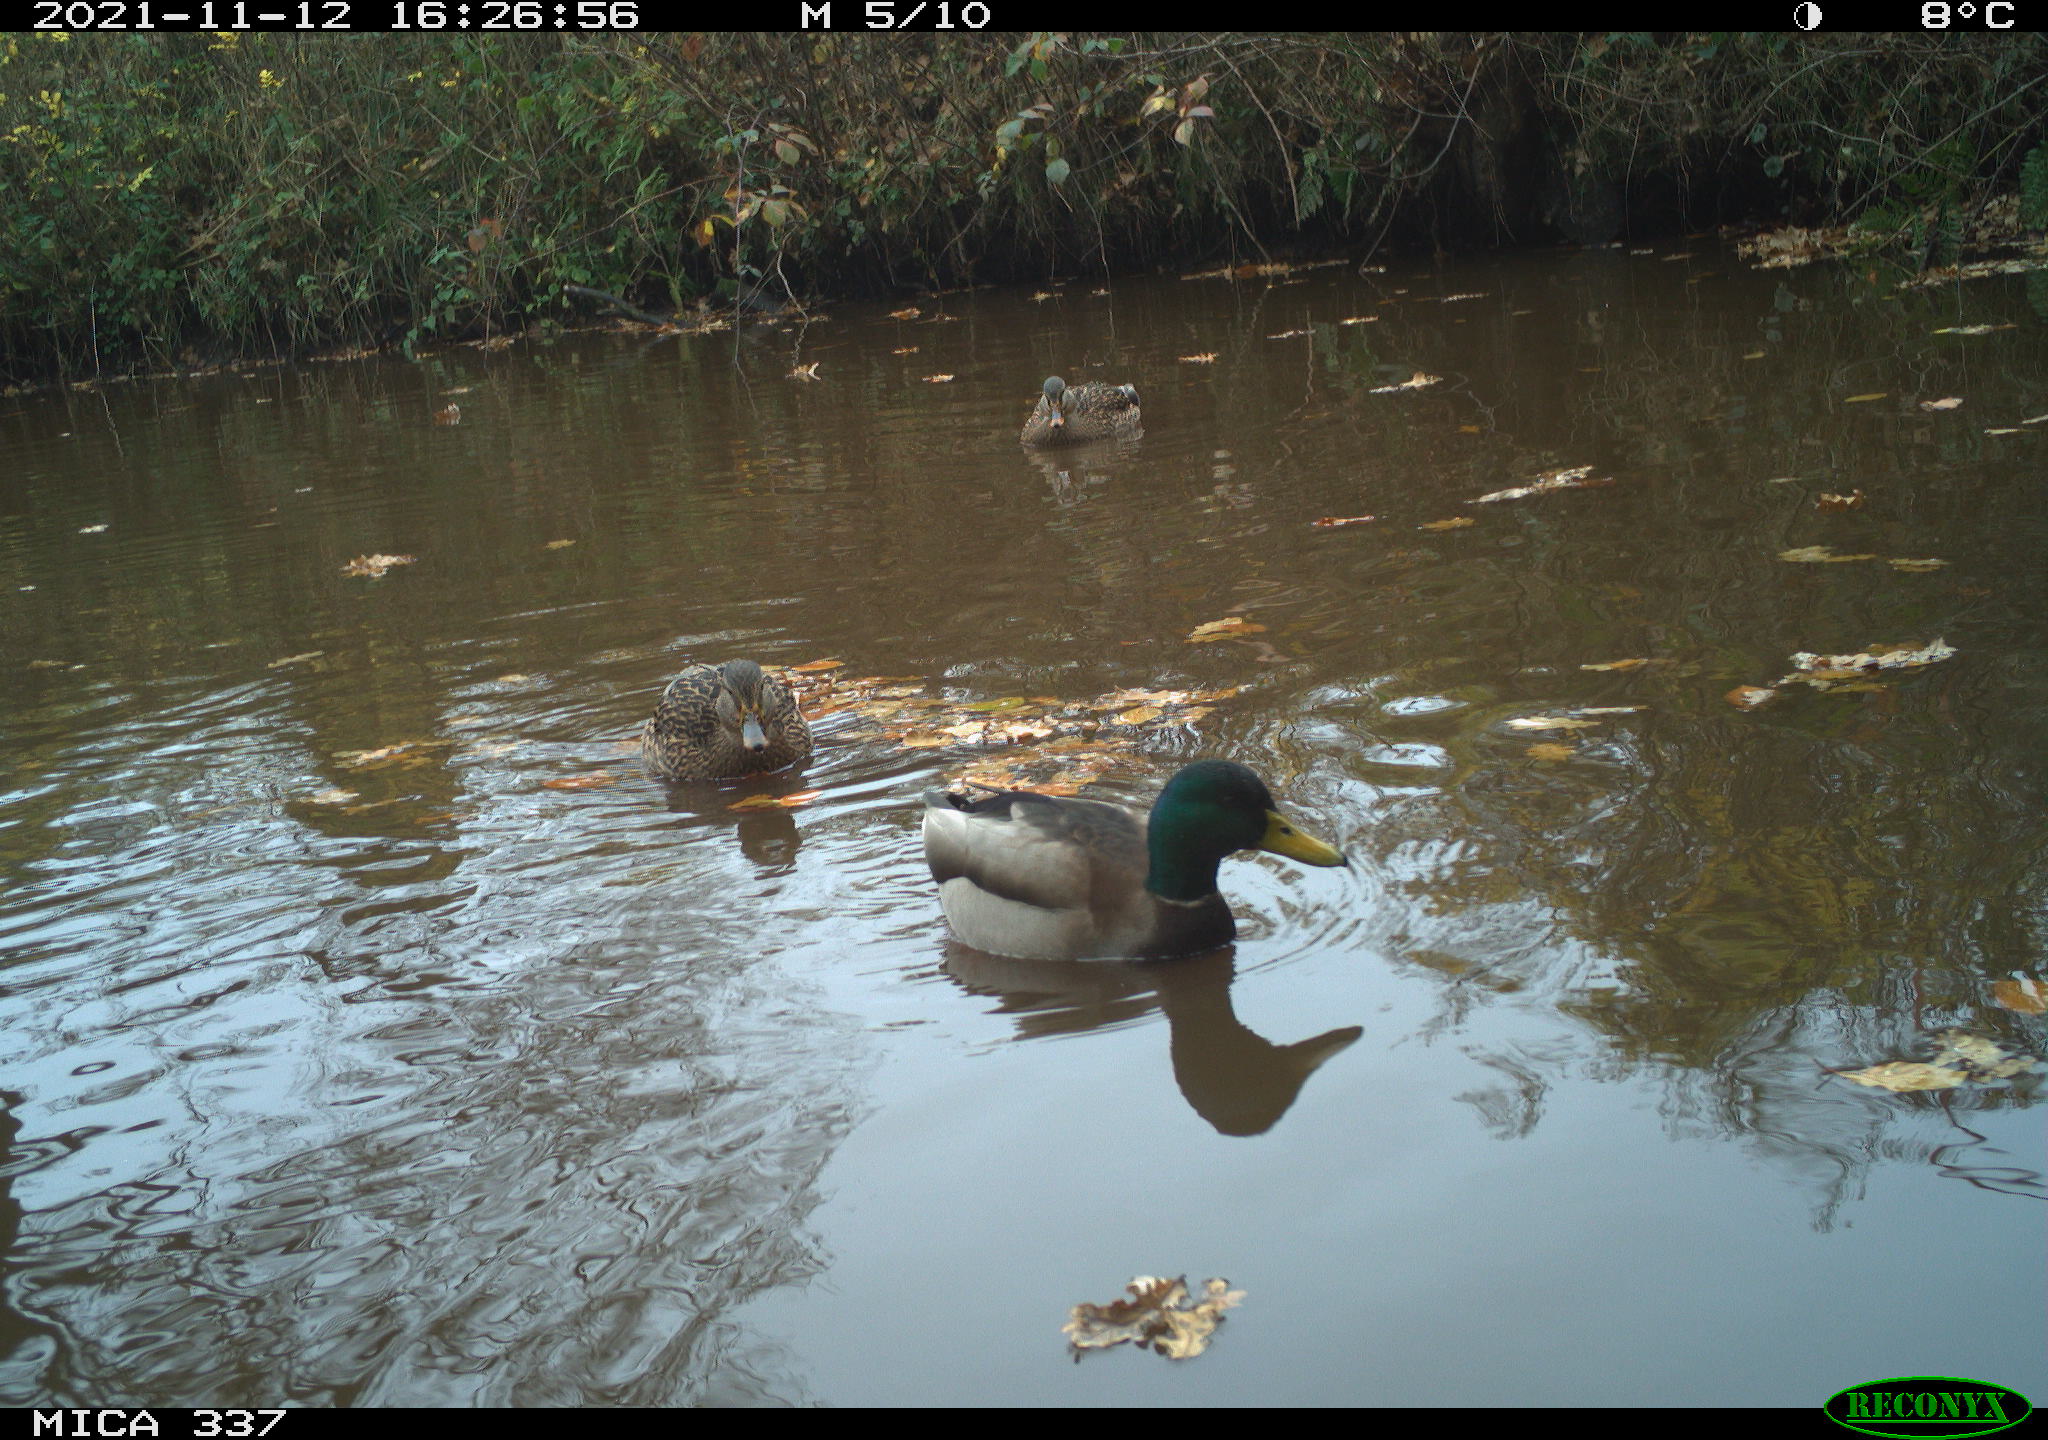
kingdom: Animalia
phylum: Chordata
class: Aves
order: Anseriformes
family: Anatidae
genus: Anas
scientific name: Anas platyrhynchos
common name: Mallard
